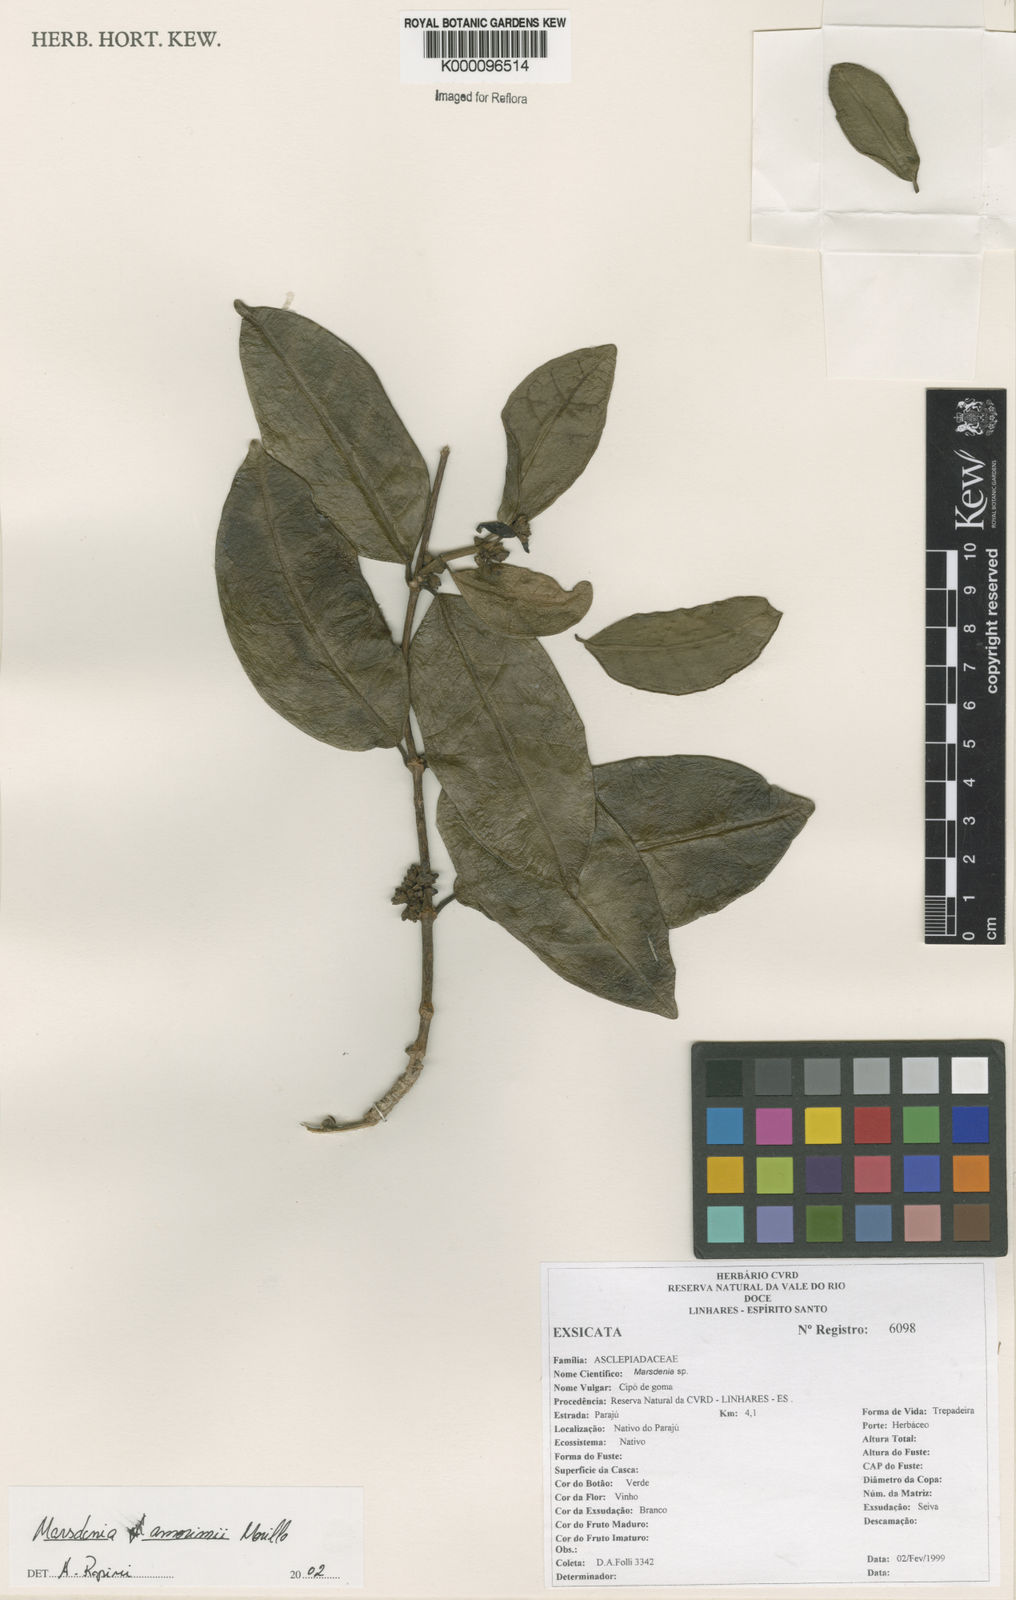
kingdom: Plantae
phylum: Tracheophyta
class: Magnoliopsida
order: Gentianales
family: Apocynaceae
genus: Ruehssia
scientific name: Ruehssia amorimii
